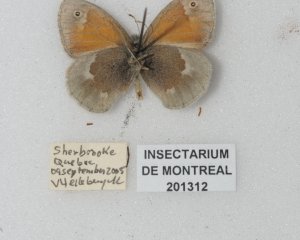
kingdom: Animalia
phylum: Arthropoda
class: Insecta
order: Lepidoptera
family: Nymphalidae
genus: Coenonympha
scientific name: Coenonympha tullia
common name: Large Heath
